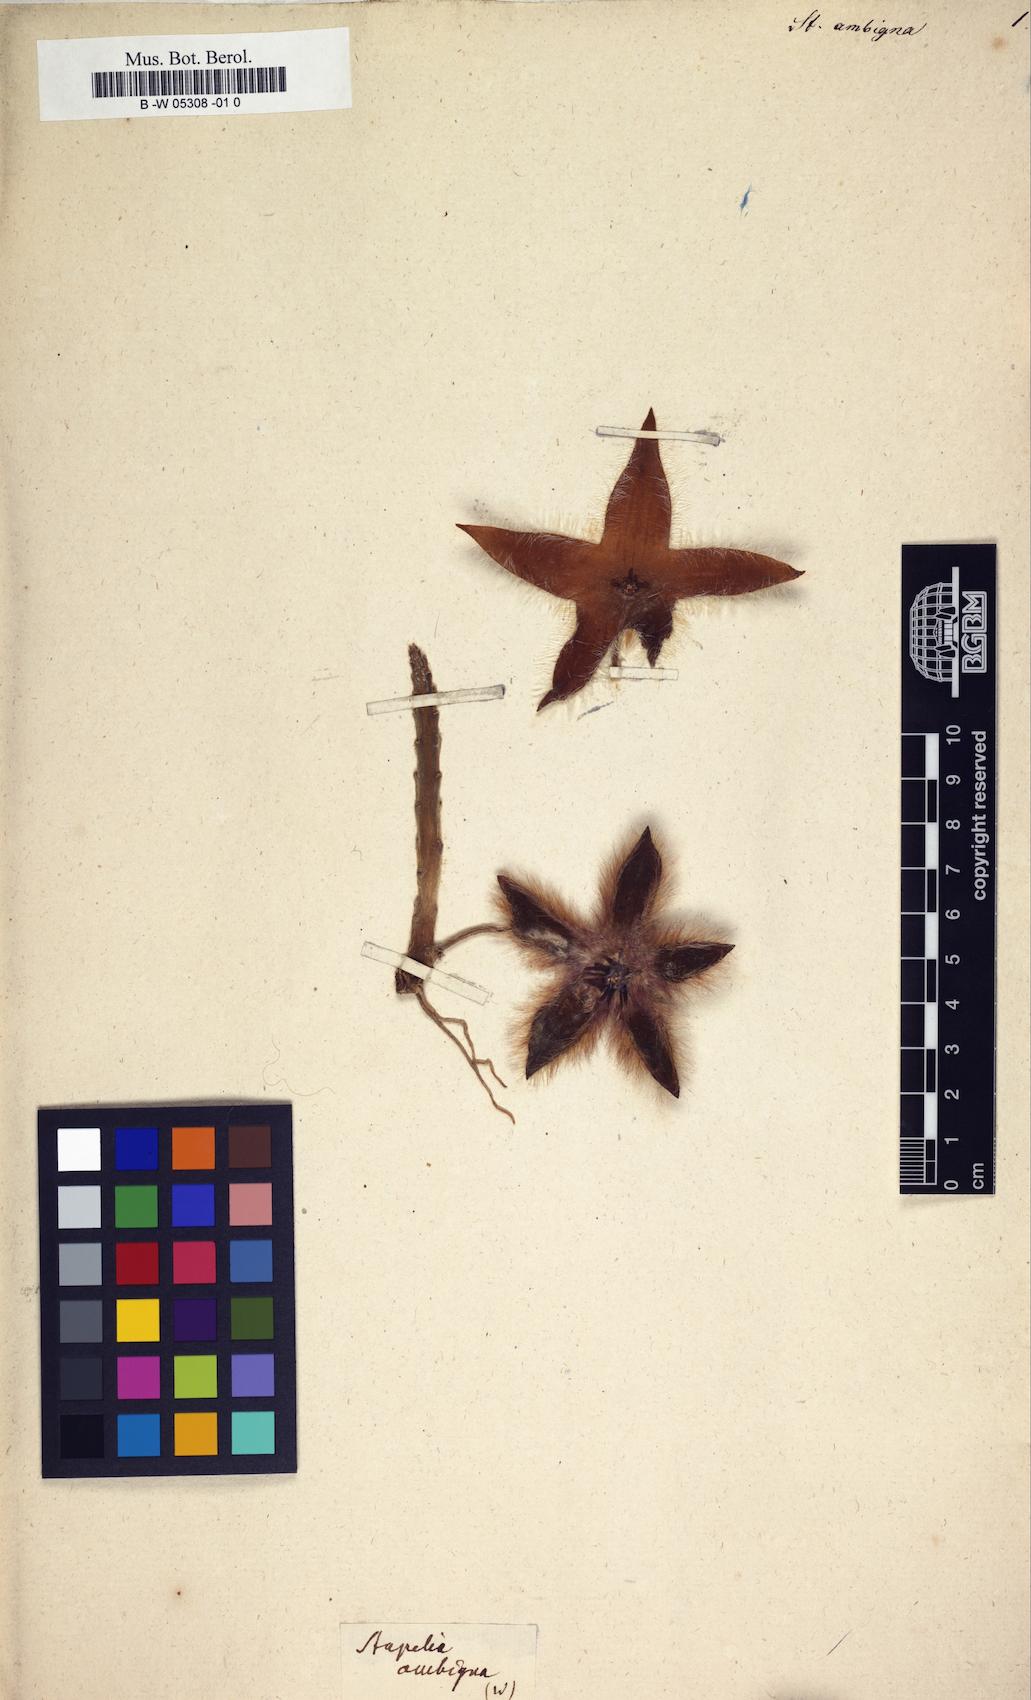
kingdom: Plantae
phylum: Tracheophyta
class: Magnoliopsida
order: Gentianales
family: Apocynaceae
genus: Ceropegia
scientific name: Ceropegia grandiflora
